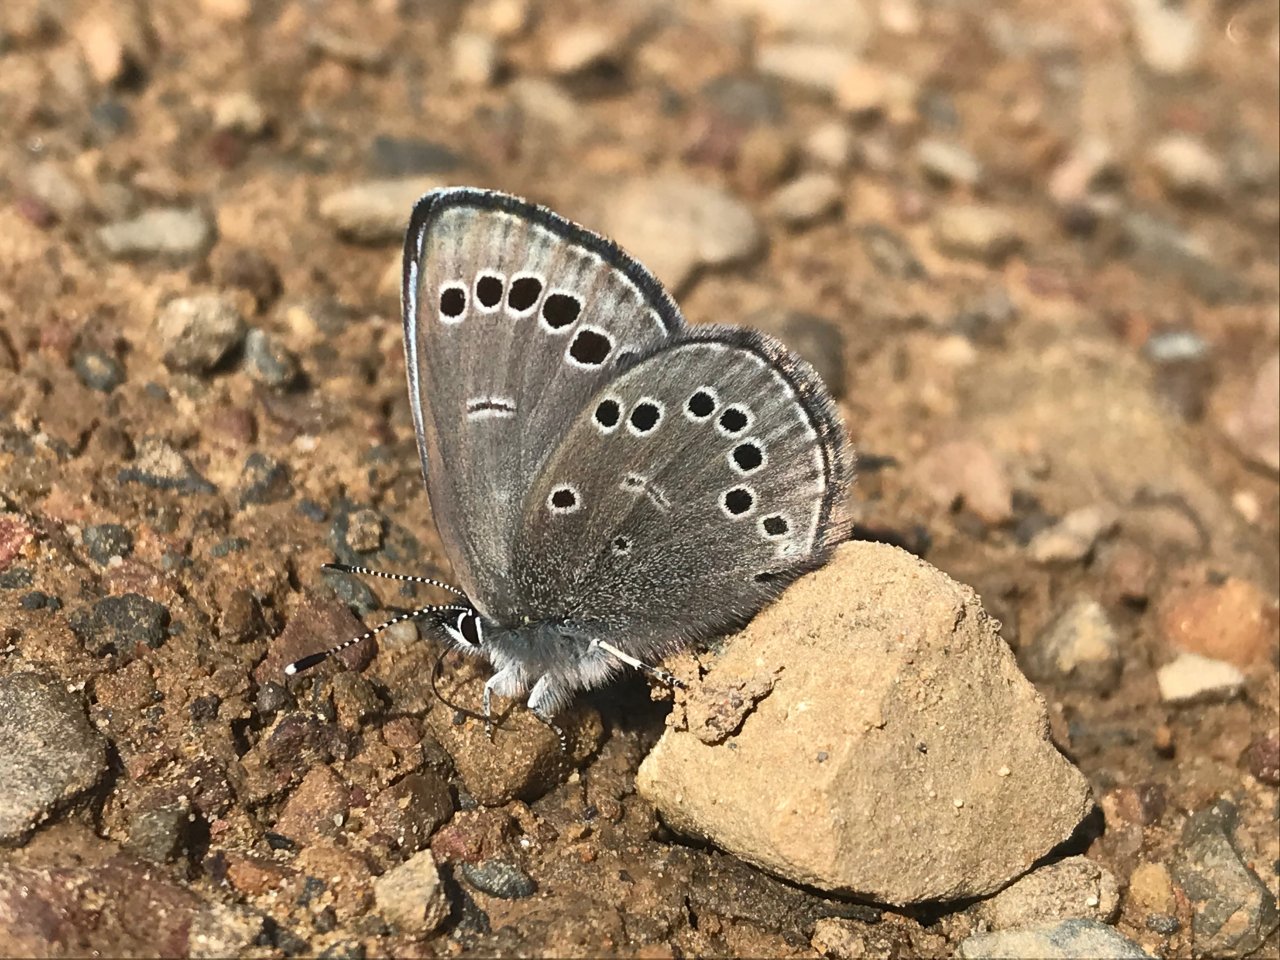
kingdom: Animalia
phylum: Arthropoda
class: Insecta
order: Lepidoptera
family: Lycaenidae
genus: Glaucopsyche
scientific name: Glaucopsyche lygdamus
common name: Silvery Blue
